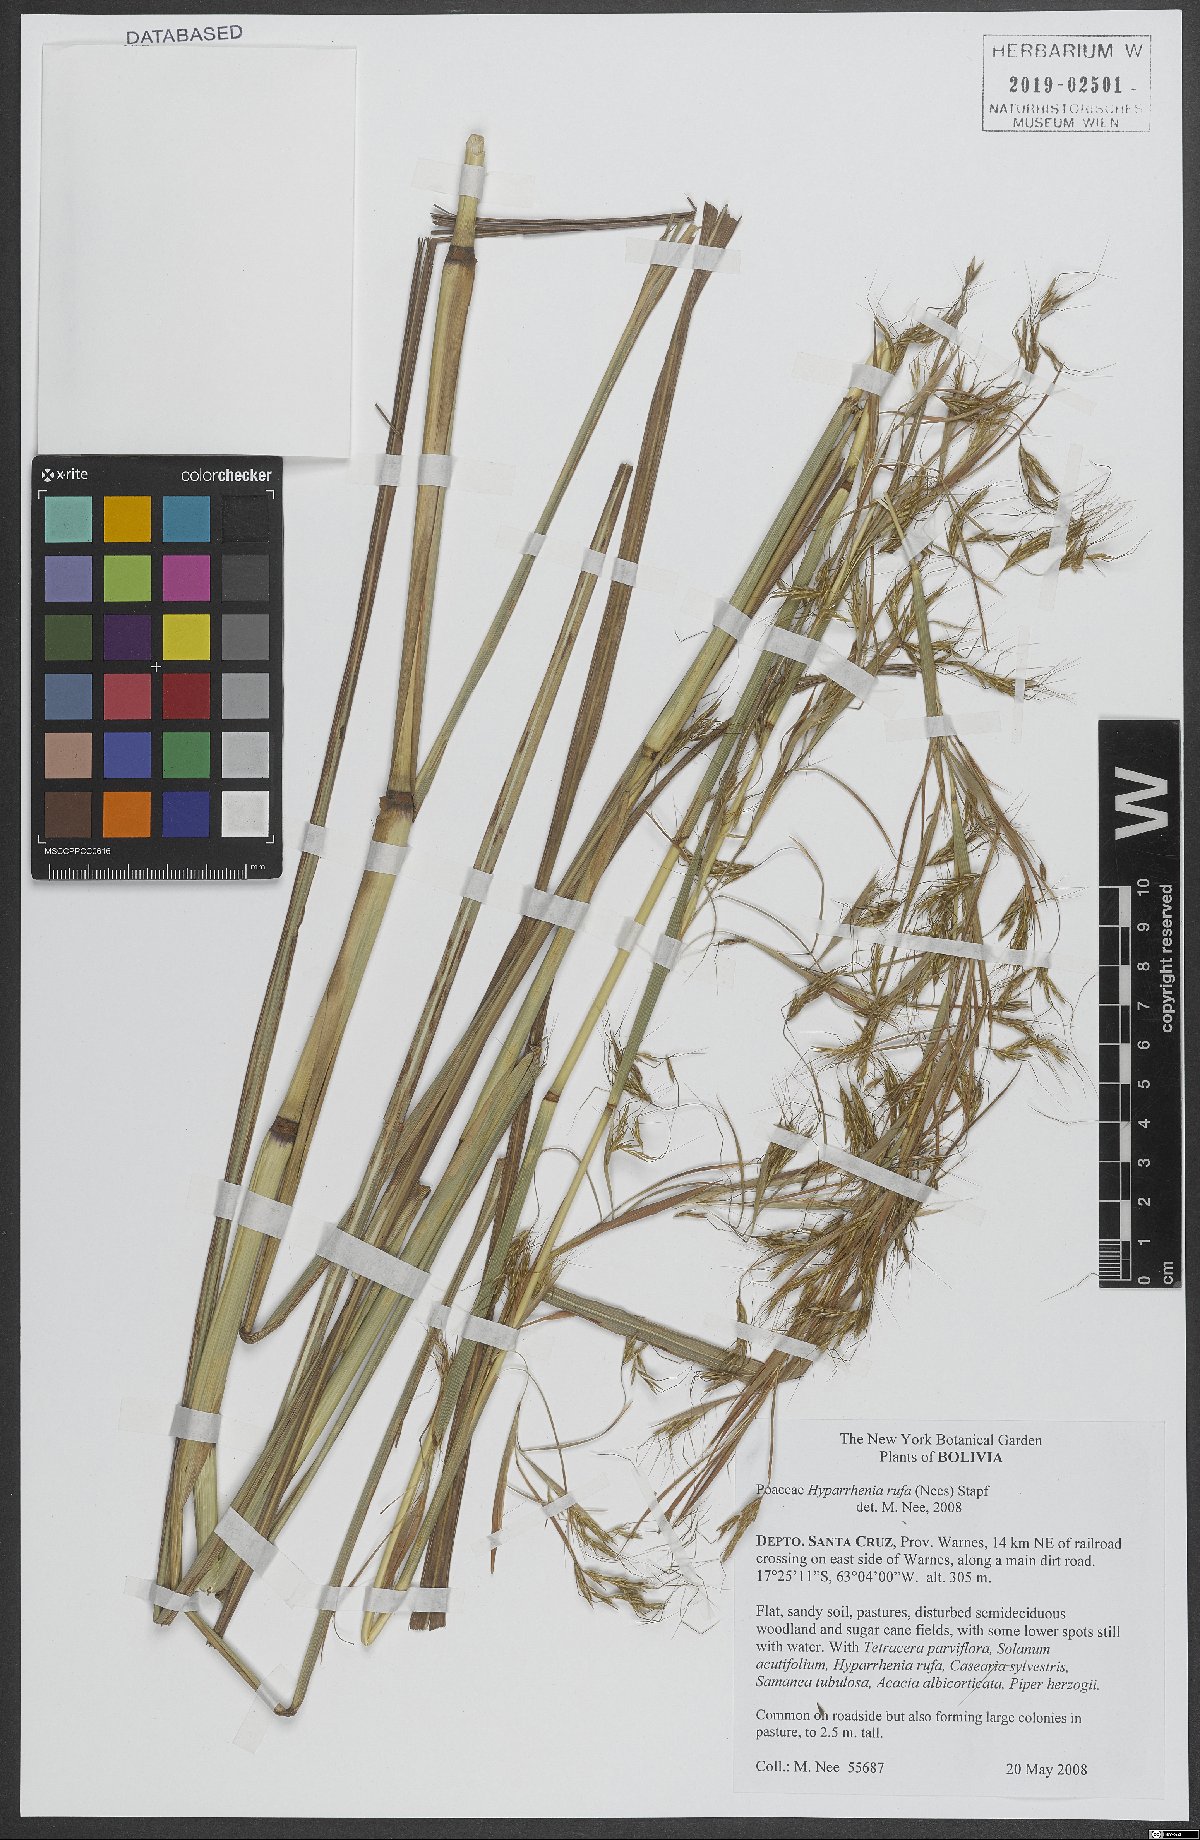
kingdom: Plantae
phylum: Tracheophyta
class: Liliopsida
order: Poales
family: Poaceae
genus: Hyparrhenia
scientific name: Hyparrhenia rufa
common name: Jaraguagrass
